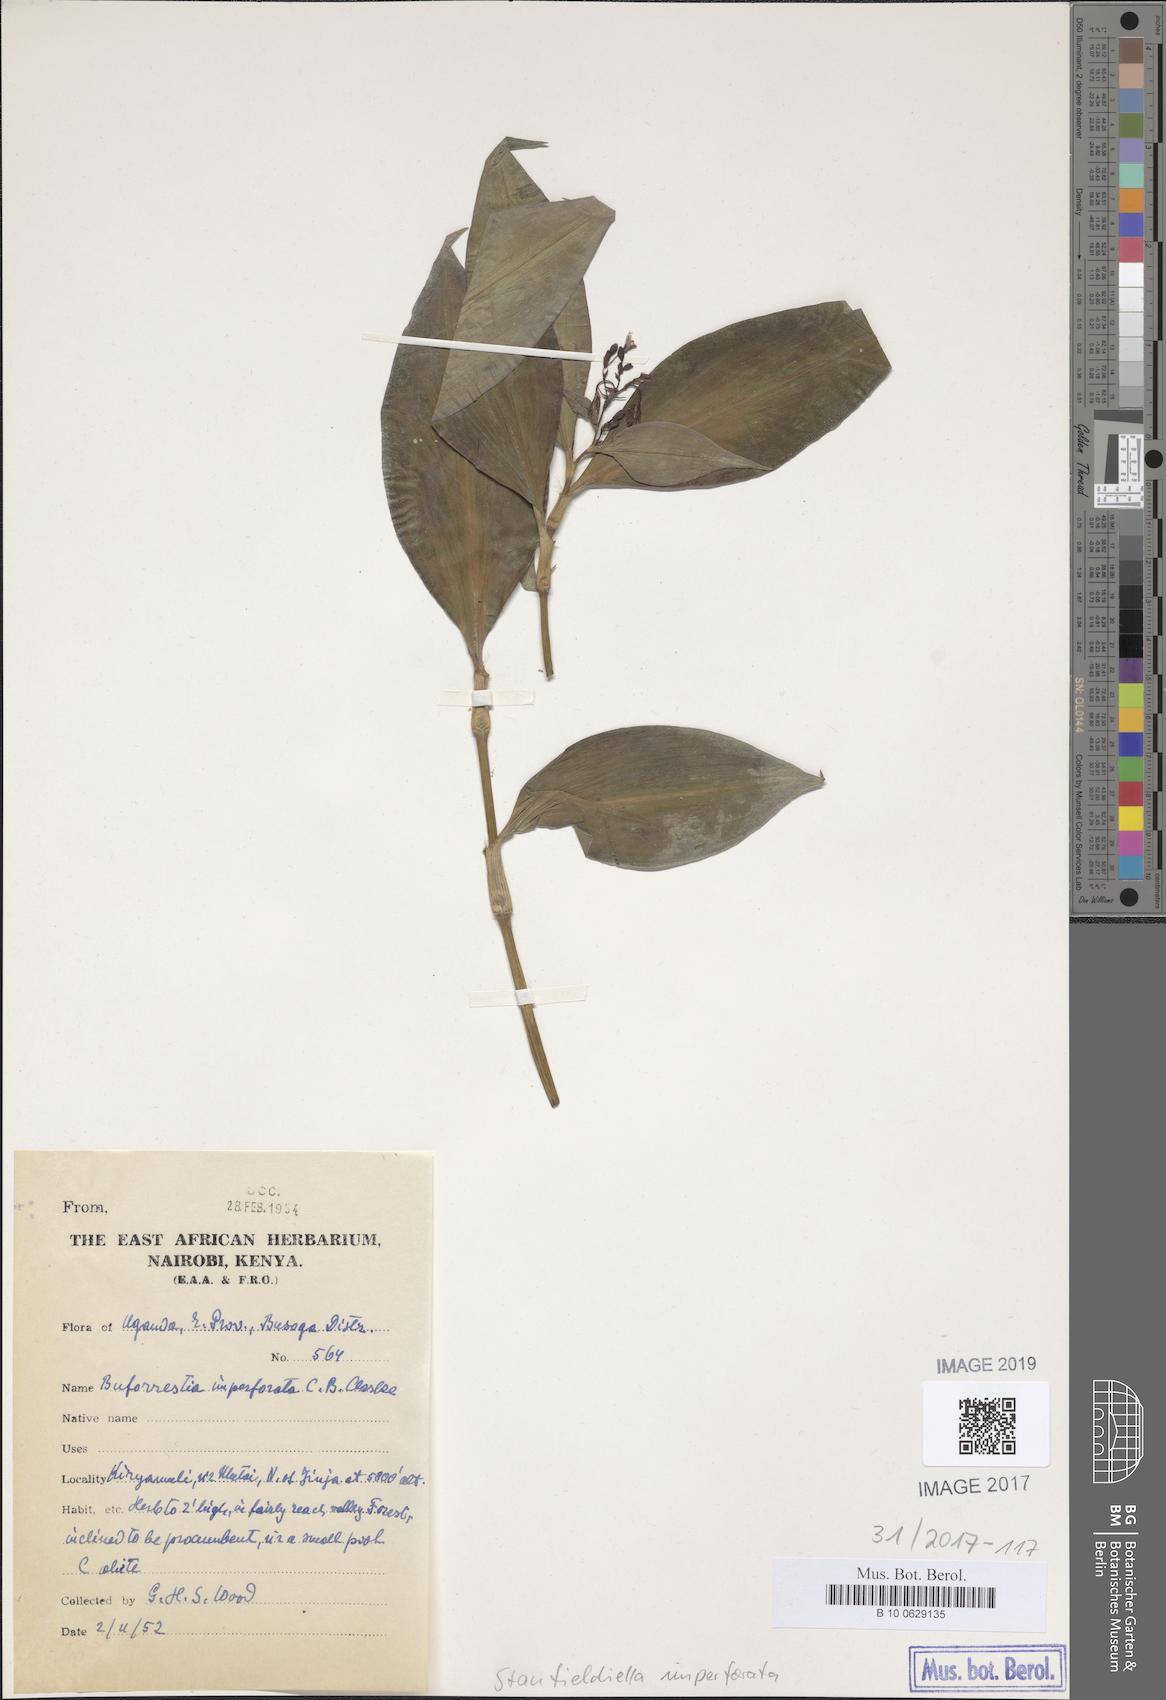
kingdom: Plantae
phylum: Tracheophyta
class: Liliopsida
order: Commelinales
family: Commelinaceae
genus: Stanfieldiella
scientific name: Stanfieldiella imperforata
